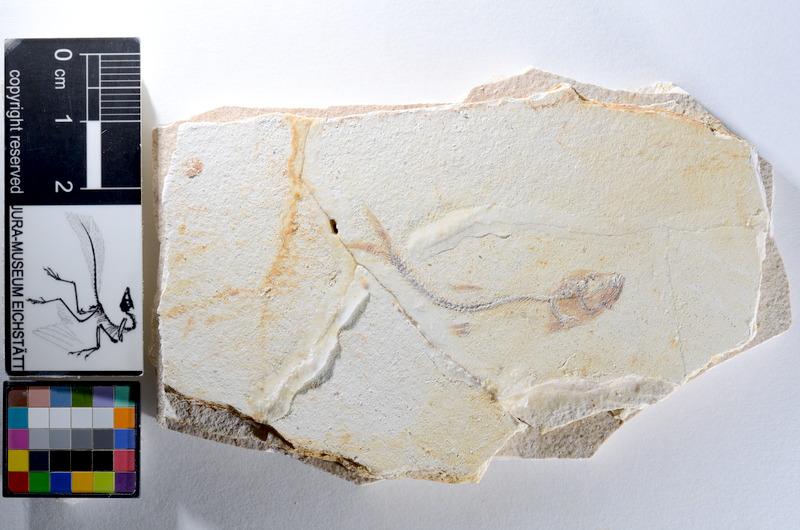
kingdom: Animalia
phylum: Chordata
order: Salmoniformes
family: Orthogonikleithridae
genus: Orthogonikleithrus
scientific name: Orthogonikleithrus hoelli
